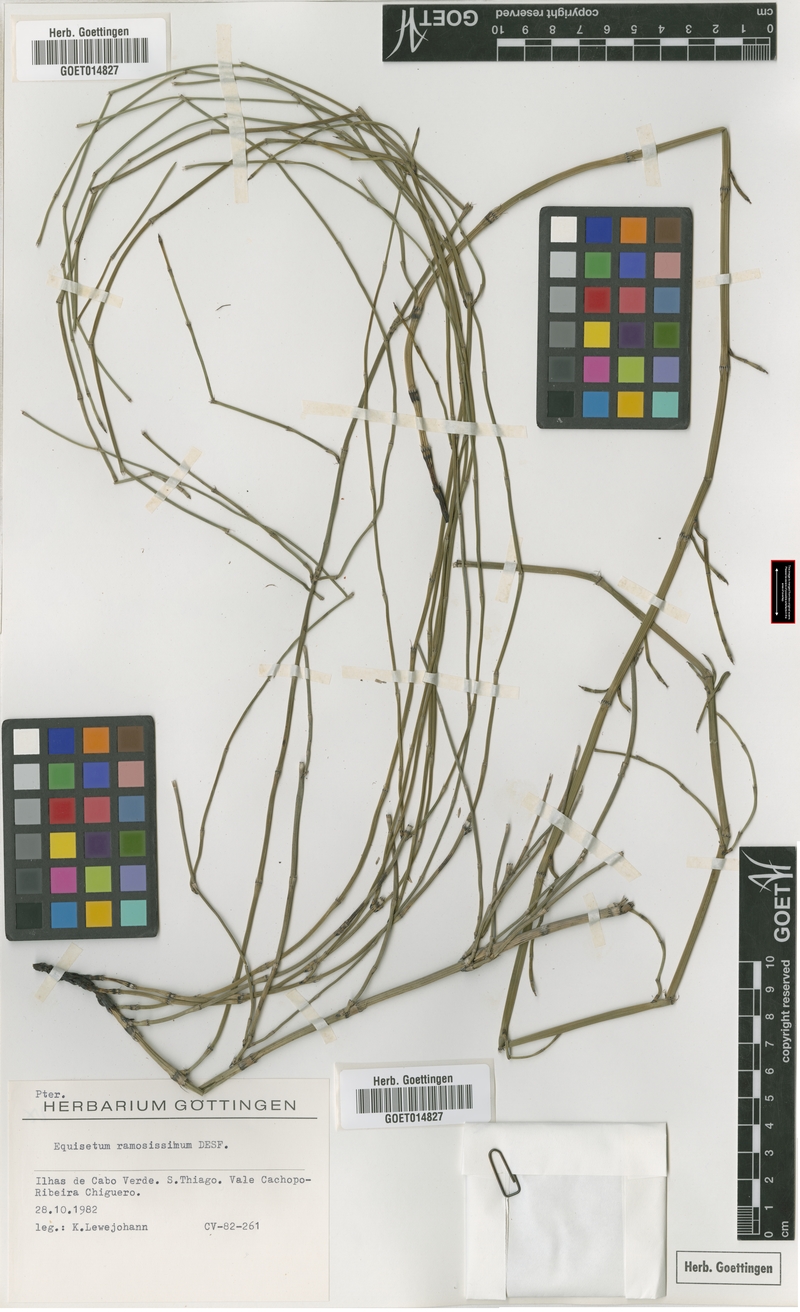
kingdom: Plantae
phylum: Tracheophyta
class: Polypodiopsida
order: Equisetales
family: Equisetaceae
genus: Equisetum
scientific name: Equisetum ramosissimum
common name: Branched horsetail
